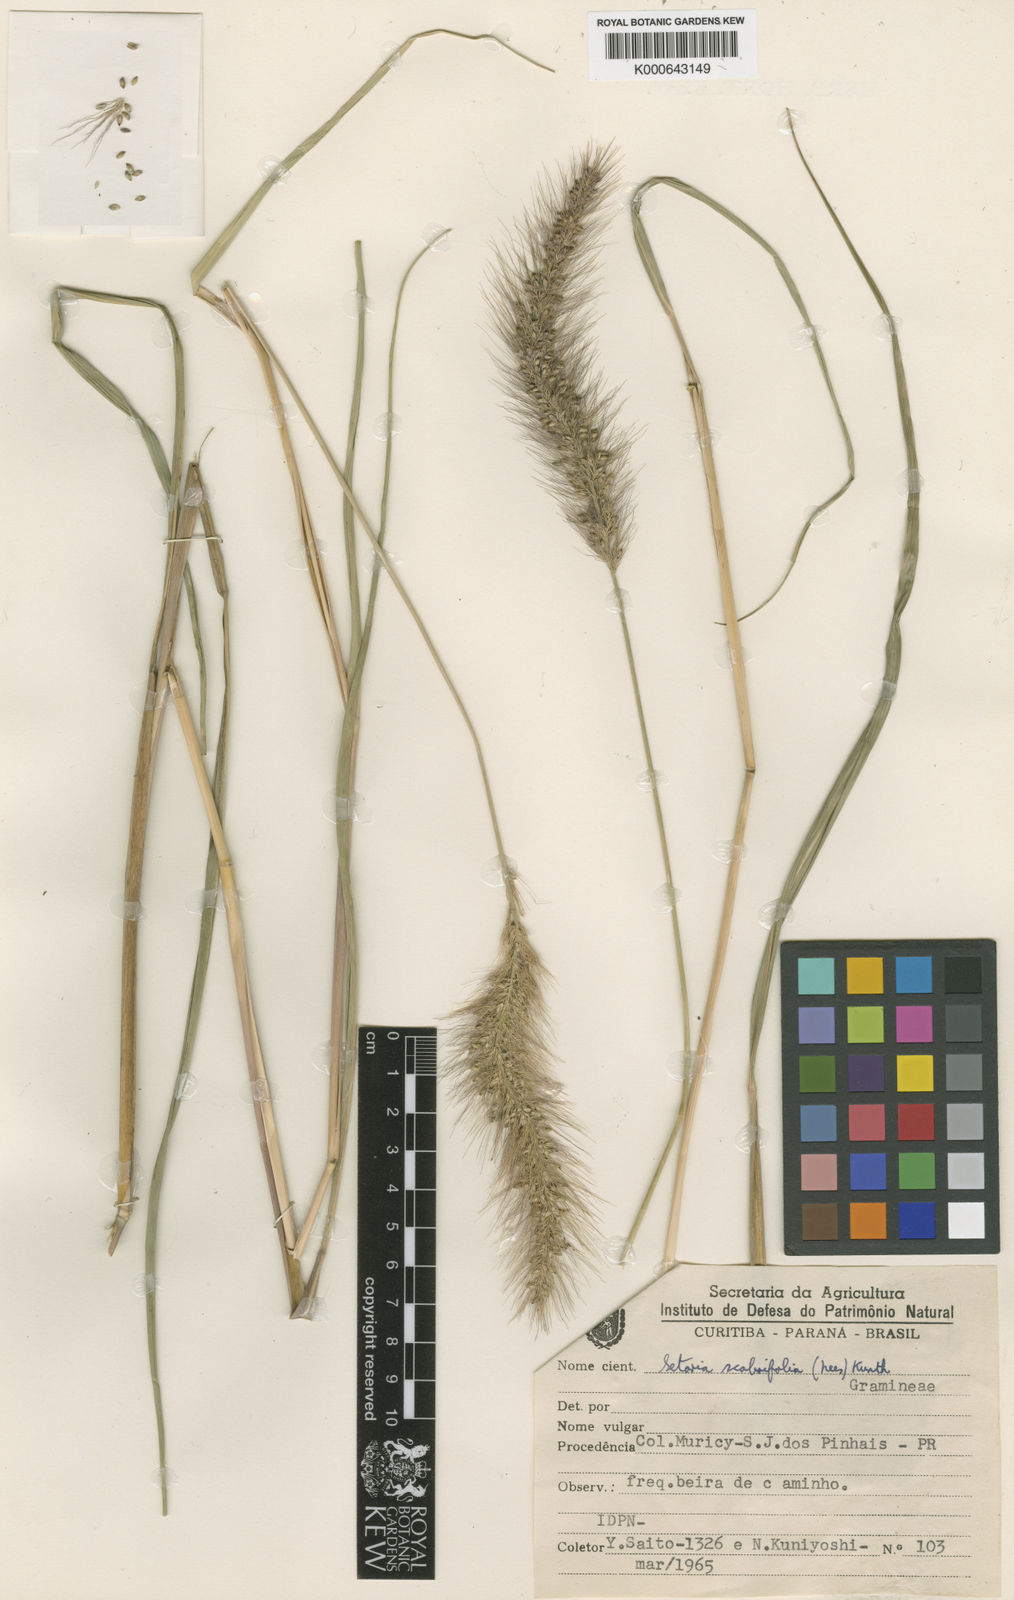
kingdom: Plantae
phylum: Tracheophyta
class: Liliopsida
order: Poales
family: Poaceae
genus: Setaria
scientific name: Setaria scabrifolia
